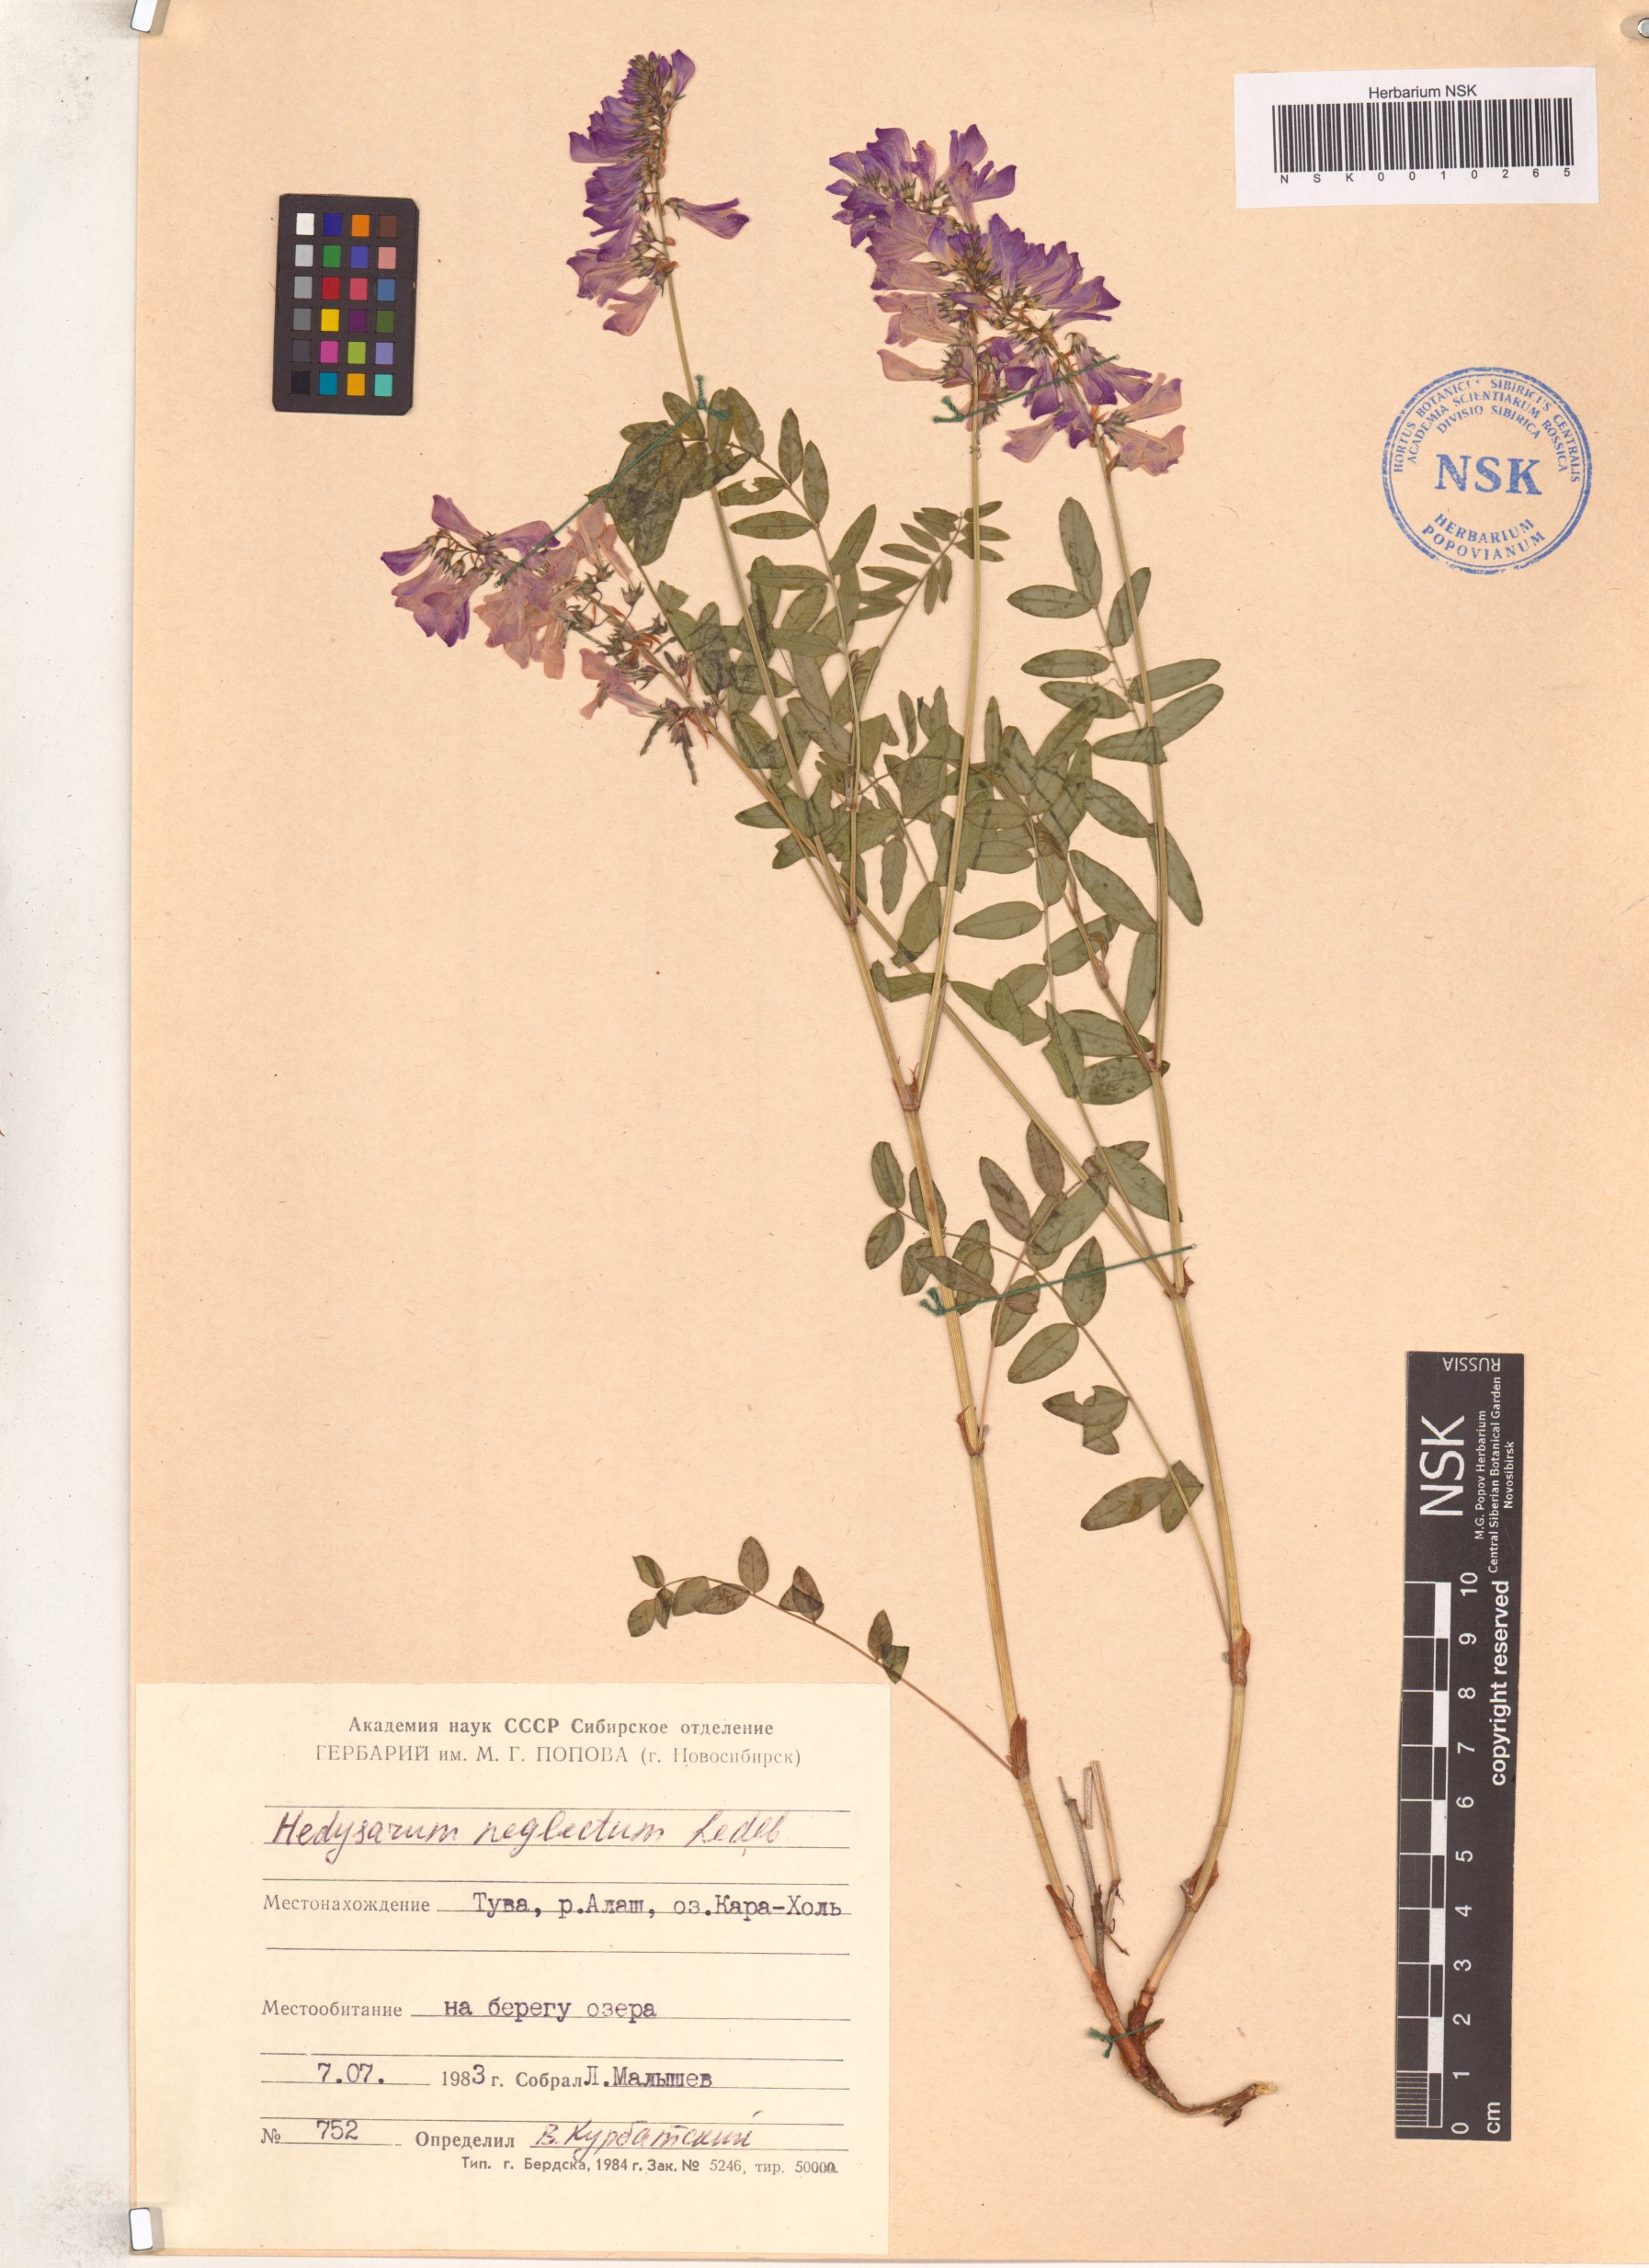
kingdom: Plantae
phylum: Tracheophyta
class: Magnoliopsida
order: Fabales
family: Fabaceae
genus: Hedysarum
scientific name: Hedysarum neglectum
